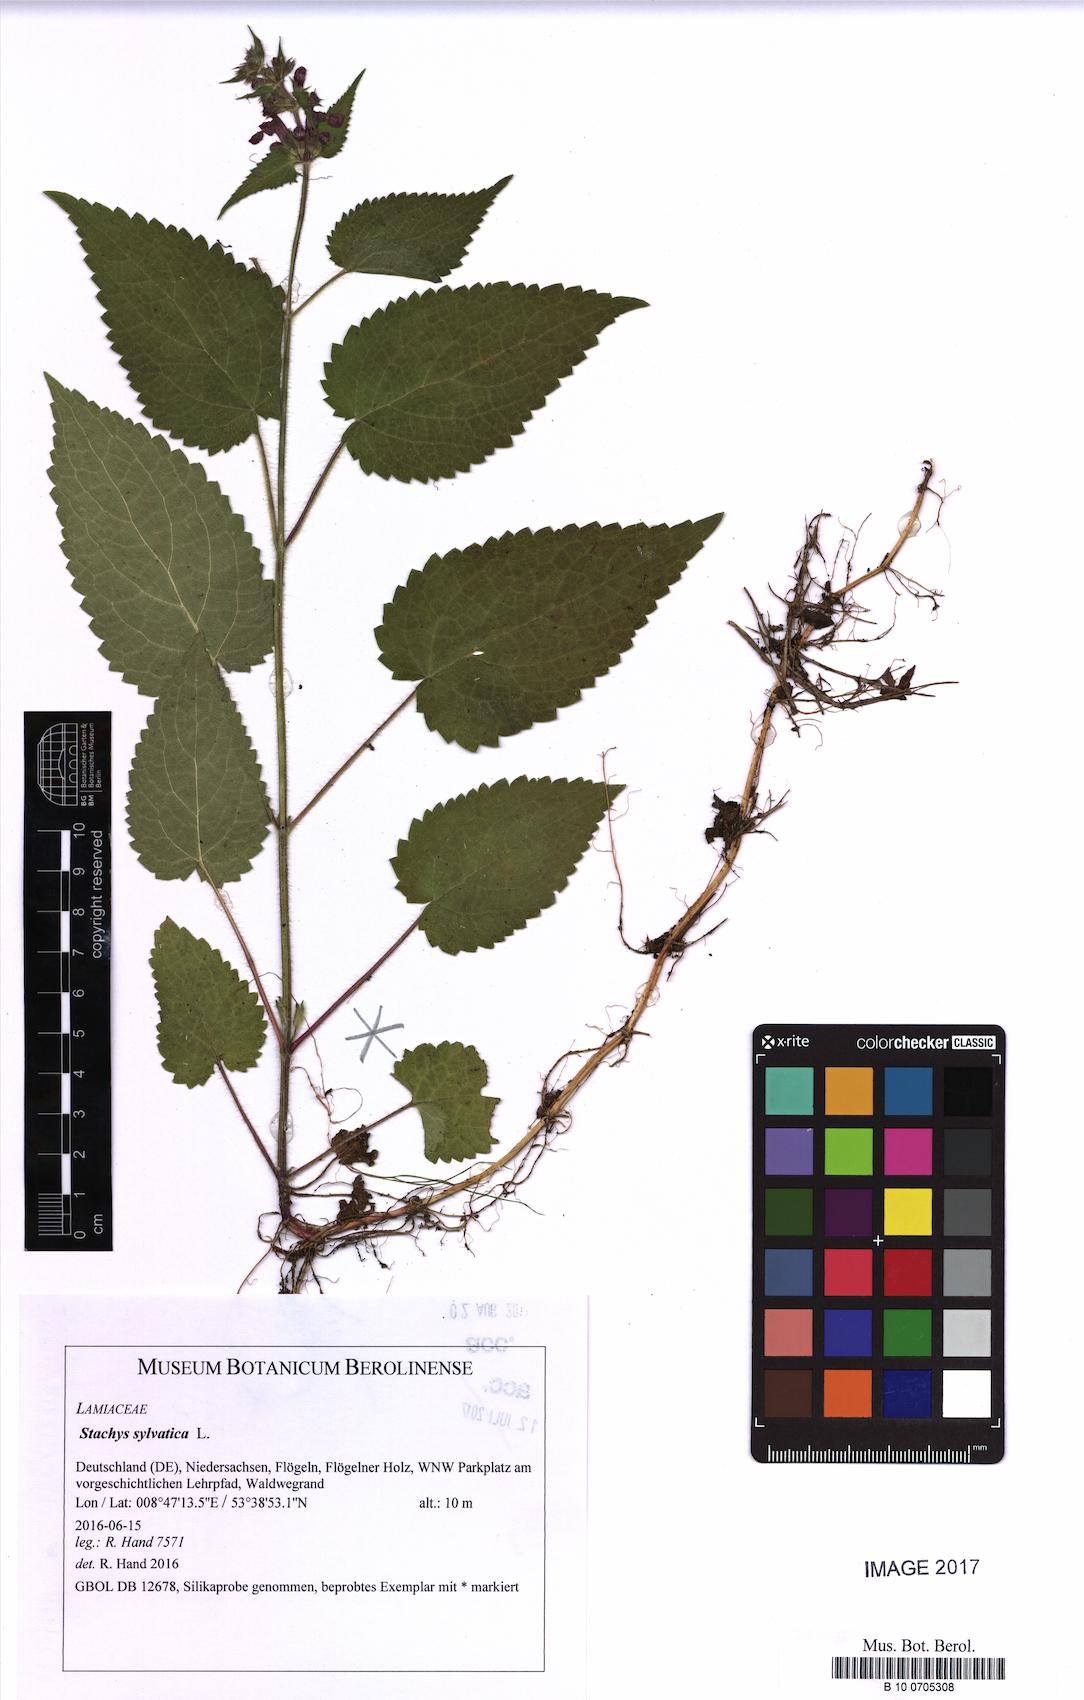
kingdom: Plantae
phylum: Tracheophyta
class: Magnoliopsida
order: Lamiales
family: Lamiaceae
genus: Stachys
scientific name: Stachys sylvatica
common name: Hedge woundwort
